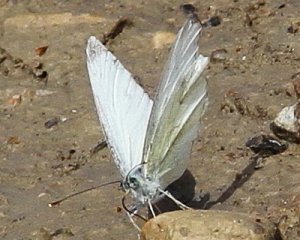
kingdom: Animalia
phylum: Arthropoda
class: Insecta
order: Lepidoptera
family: Pieridae
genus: Pieris
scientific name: Pieris rapae
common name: Cabbage White
